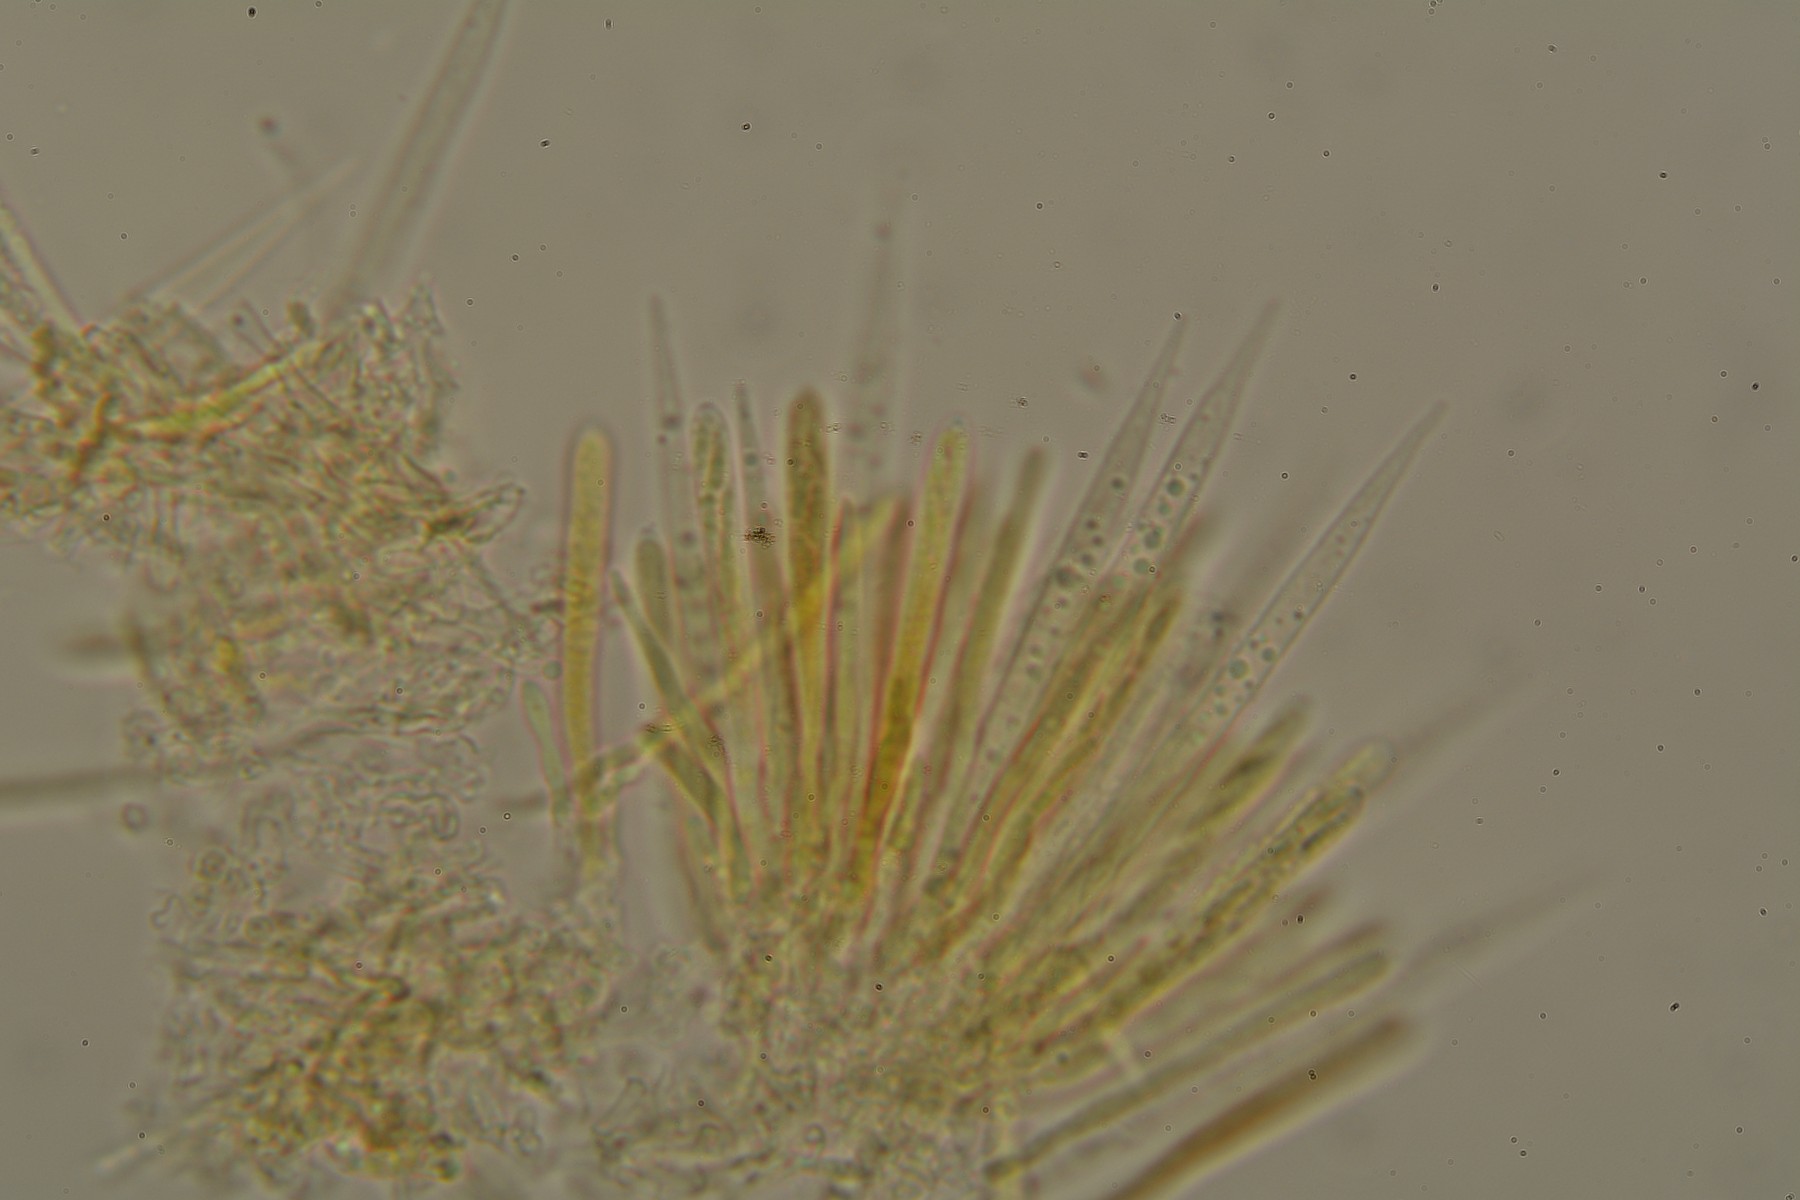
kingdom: Fungi
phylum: Ascomycota
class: Leotiomycetes
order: Helotiales
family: Solenopeziaceae
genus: Lasiobelonium
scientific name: Lasiobelonium nidulus
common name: rede-frynseskive
